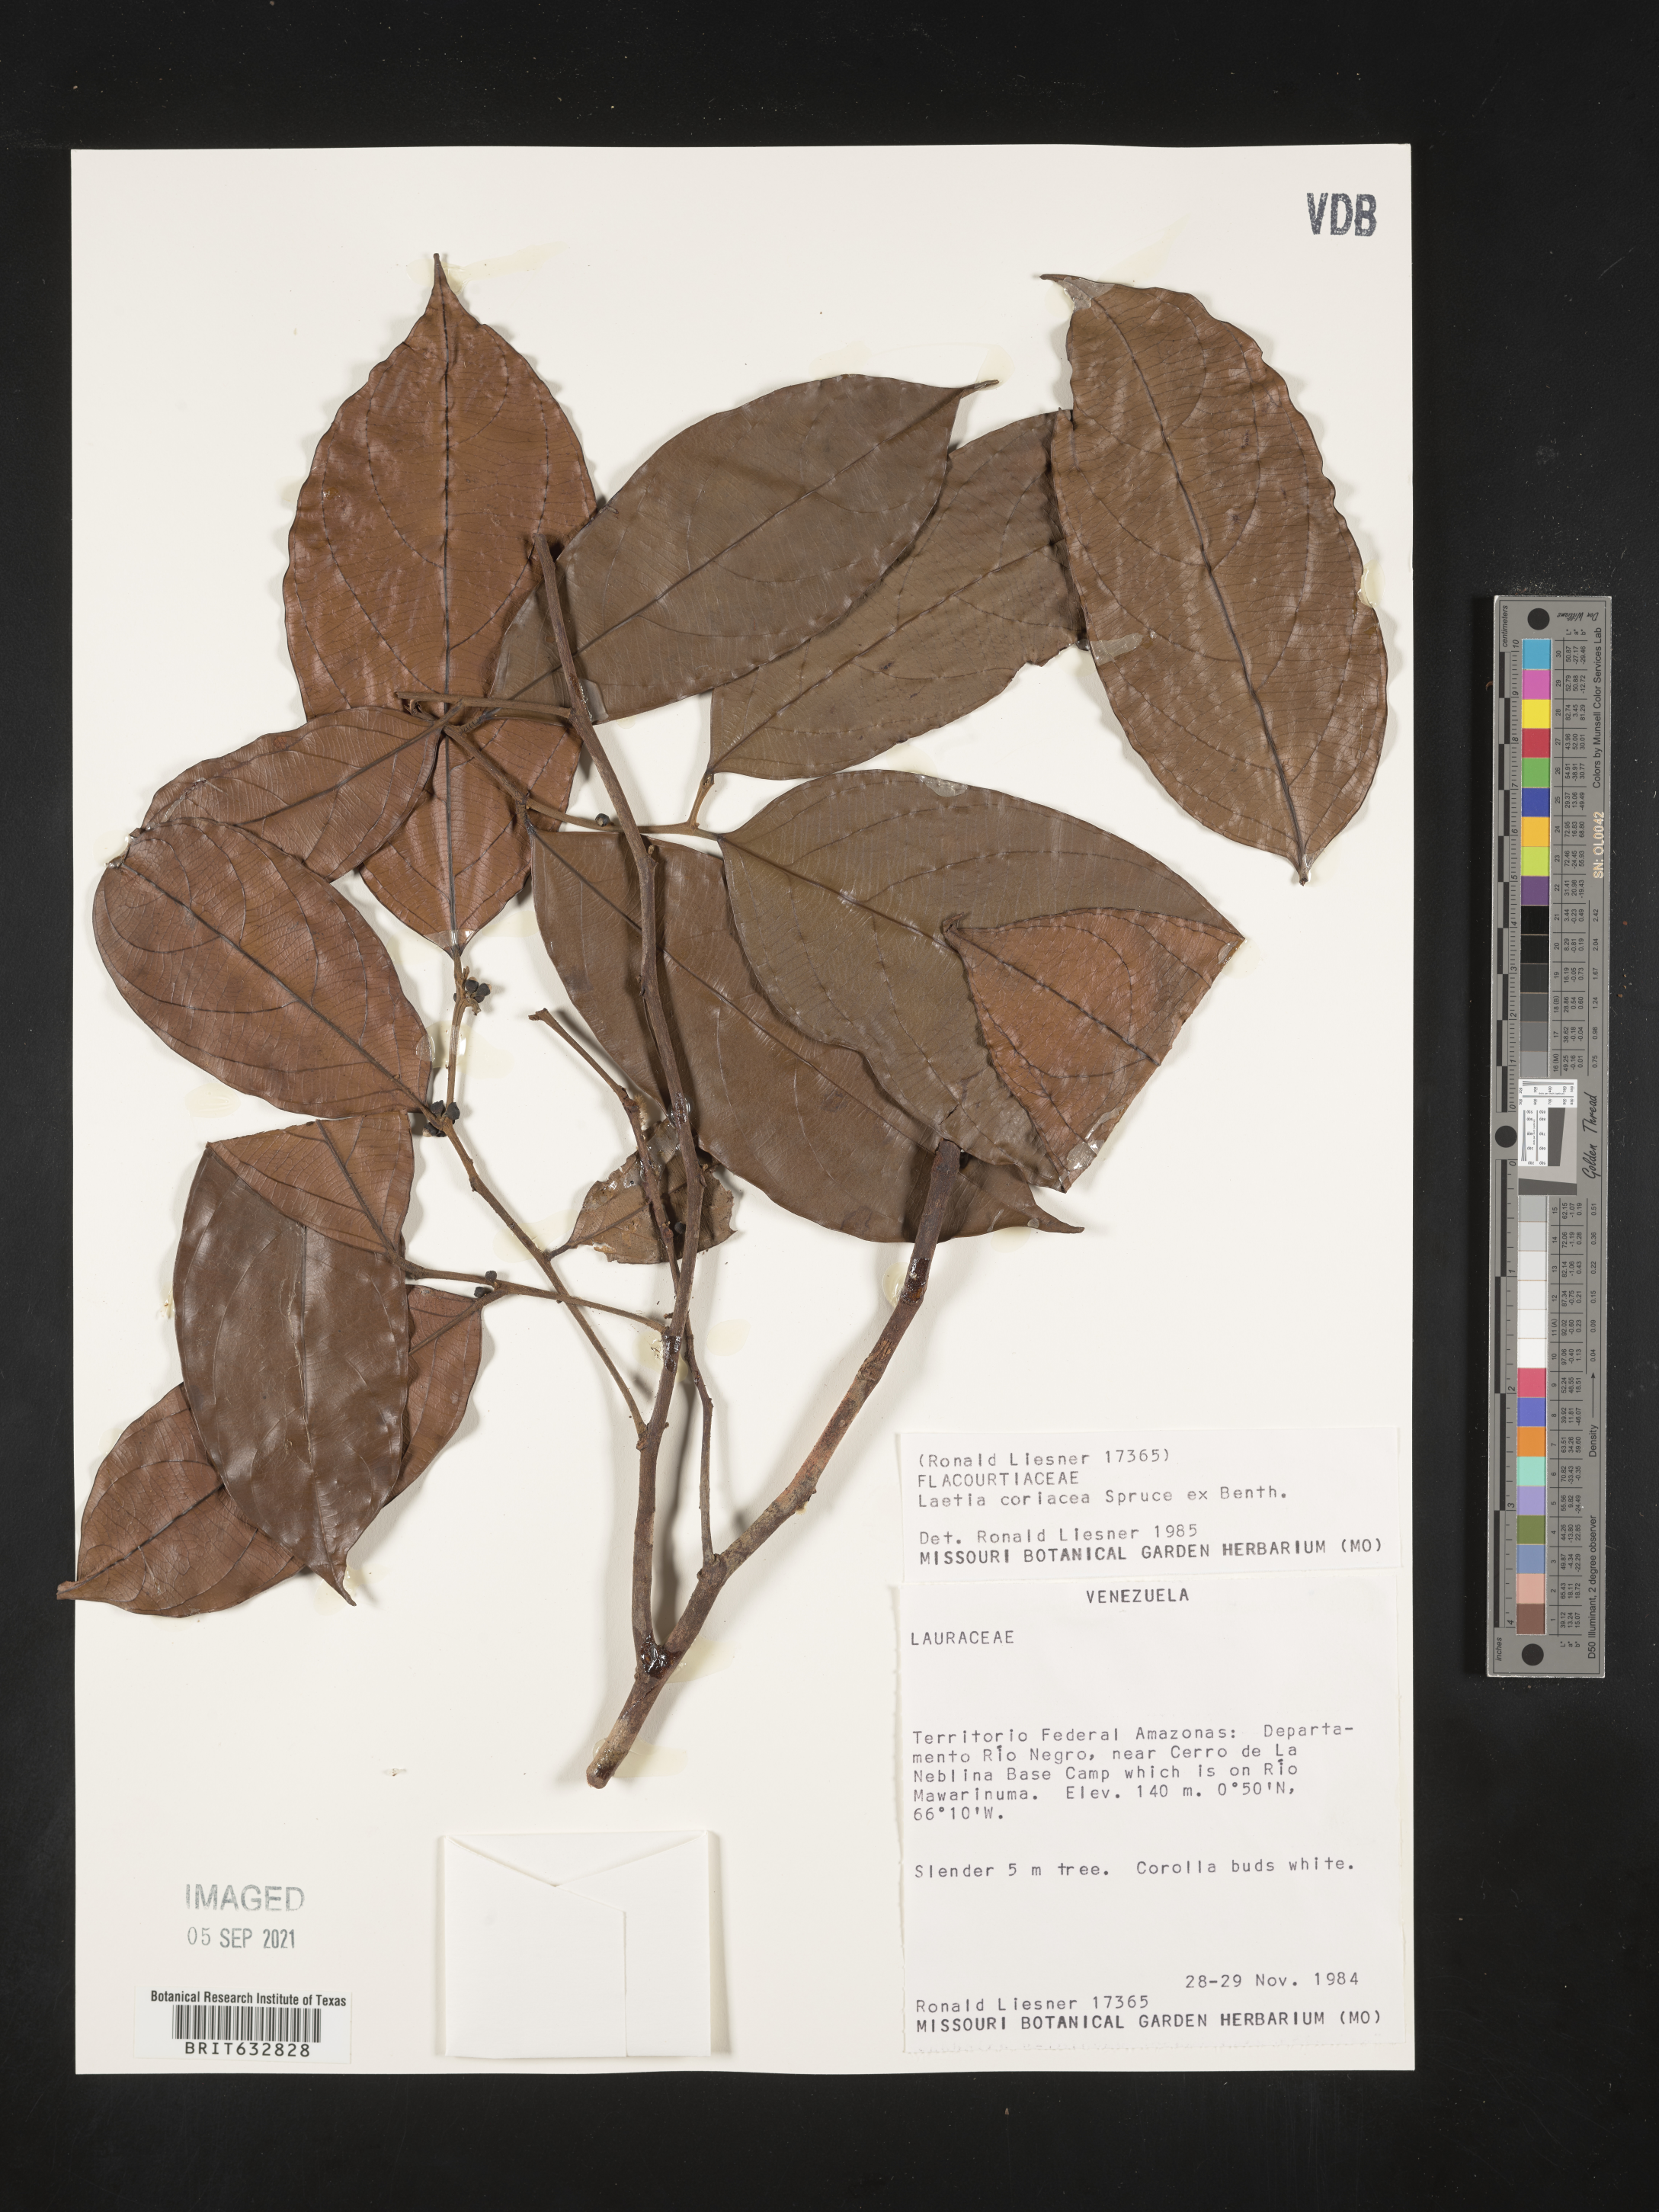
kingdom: Plantae
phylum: Tracheophyta
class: Magnoliopsida
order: Malpighiales
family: Flacourtiaceae
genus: Laetia
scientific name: Laetia
